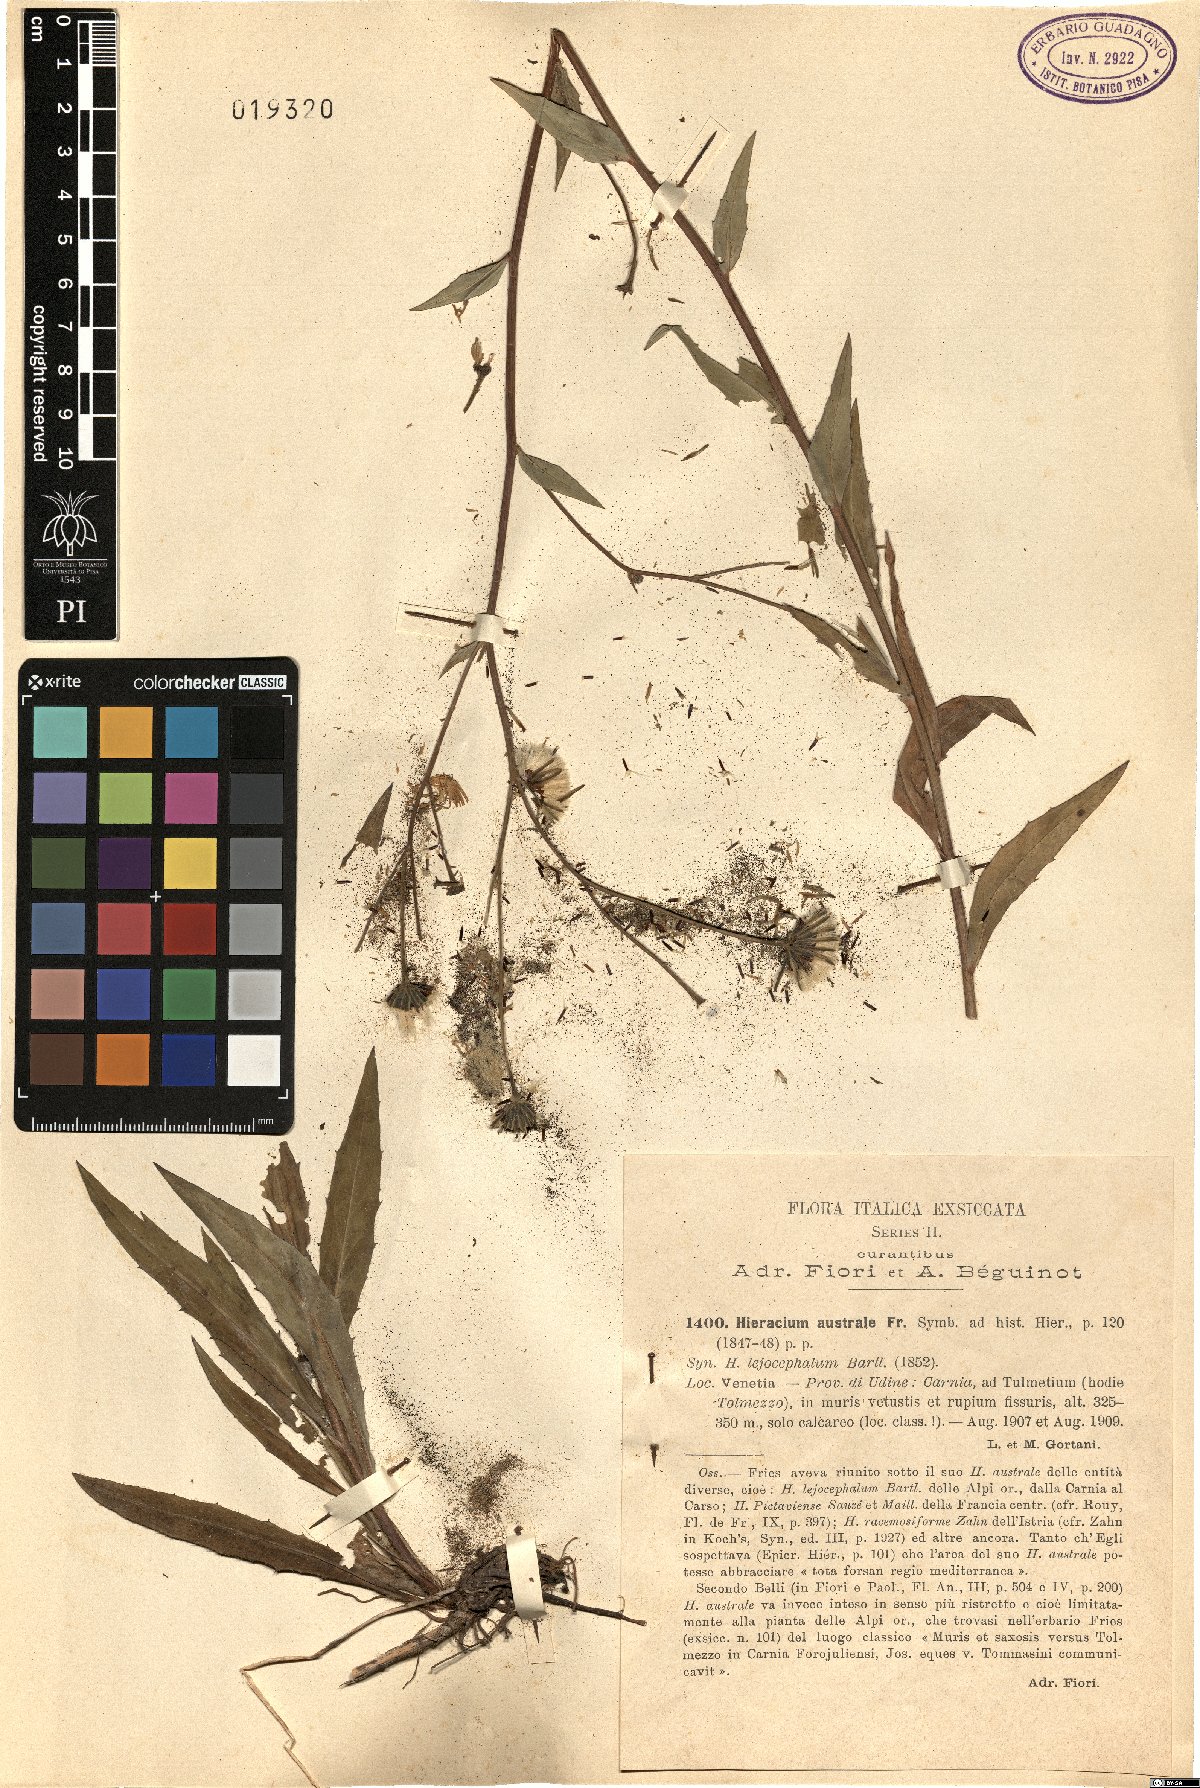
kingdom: Plantae
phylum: Tracheophyta
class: Magnoliopsida
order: Asterales
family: Asteraceae
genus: Hieracium
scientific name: Hieracium australe
